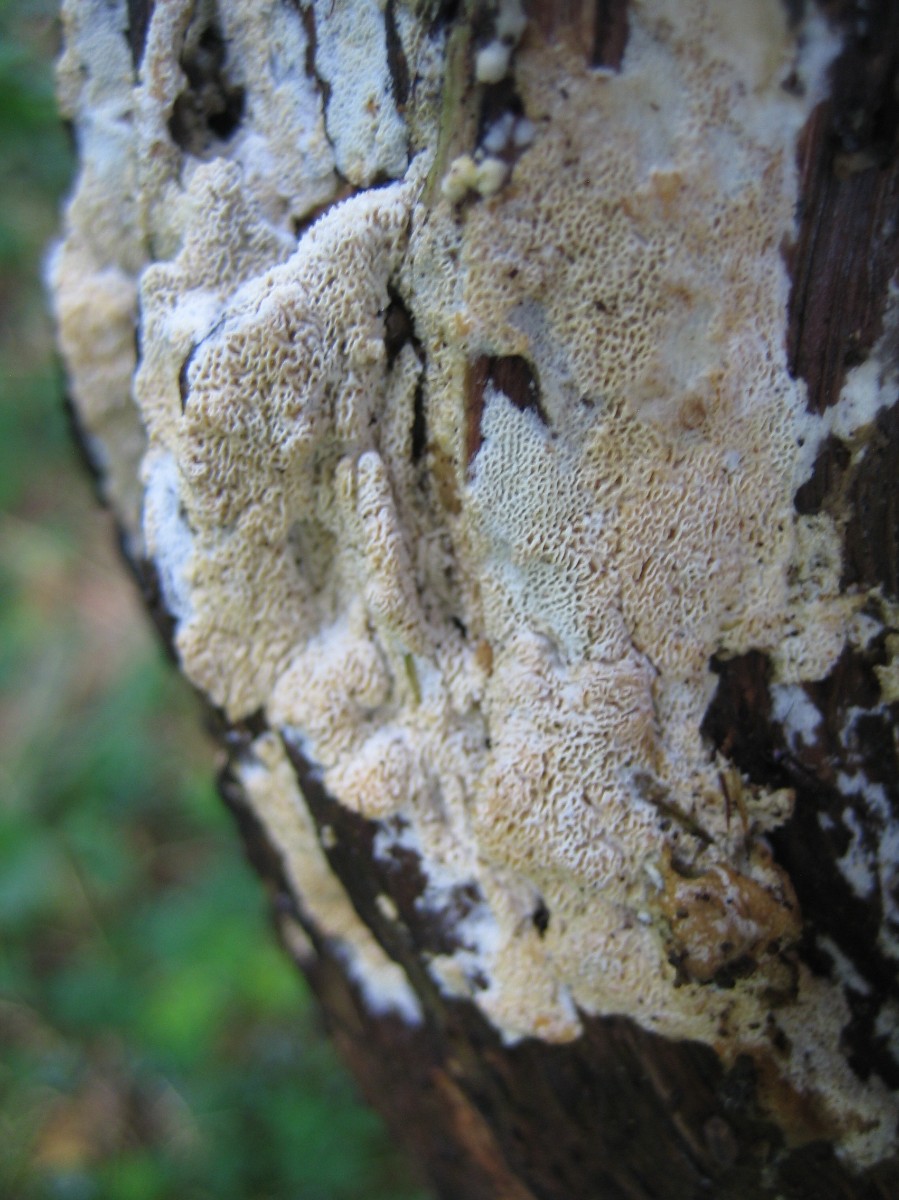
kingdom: Fungi
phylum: Basidiomycota
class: Agaricomycetes
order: Polyporales
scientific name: Polyporales
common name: poresvampordenen
